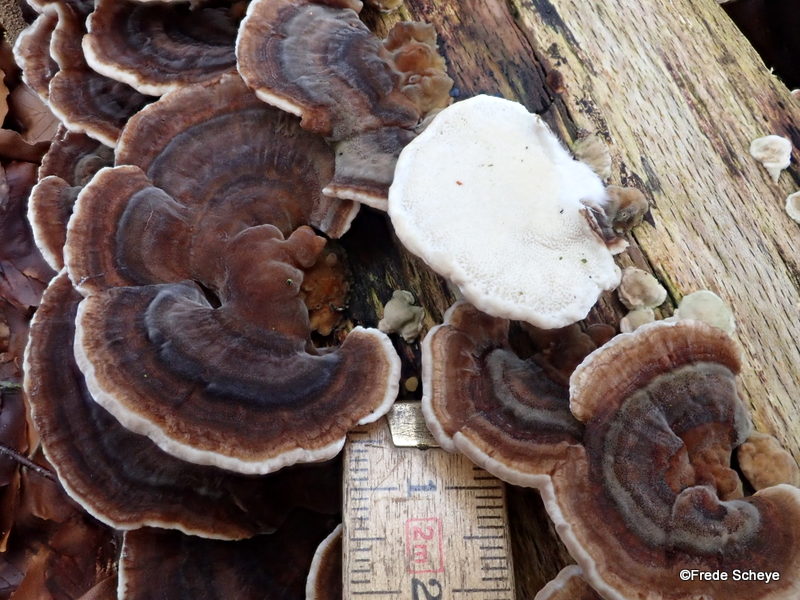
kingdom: Fungi
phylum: Basidiomycota
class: Agaricomycetes
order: Polyporales
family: Polyporaceae
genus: Trametes
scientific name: Trametes versicolor
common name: broget læderporesvamp
